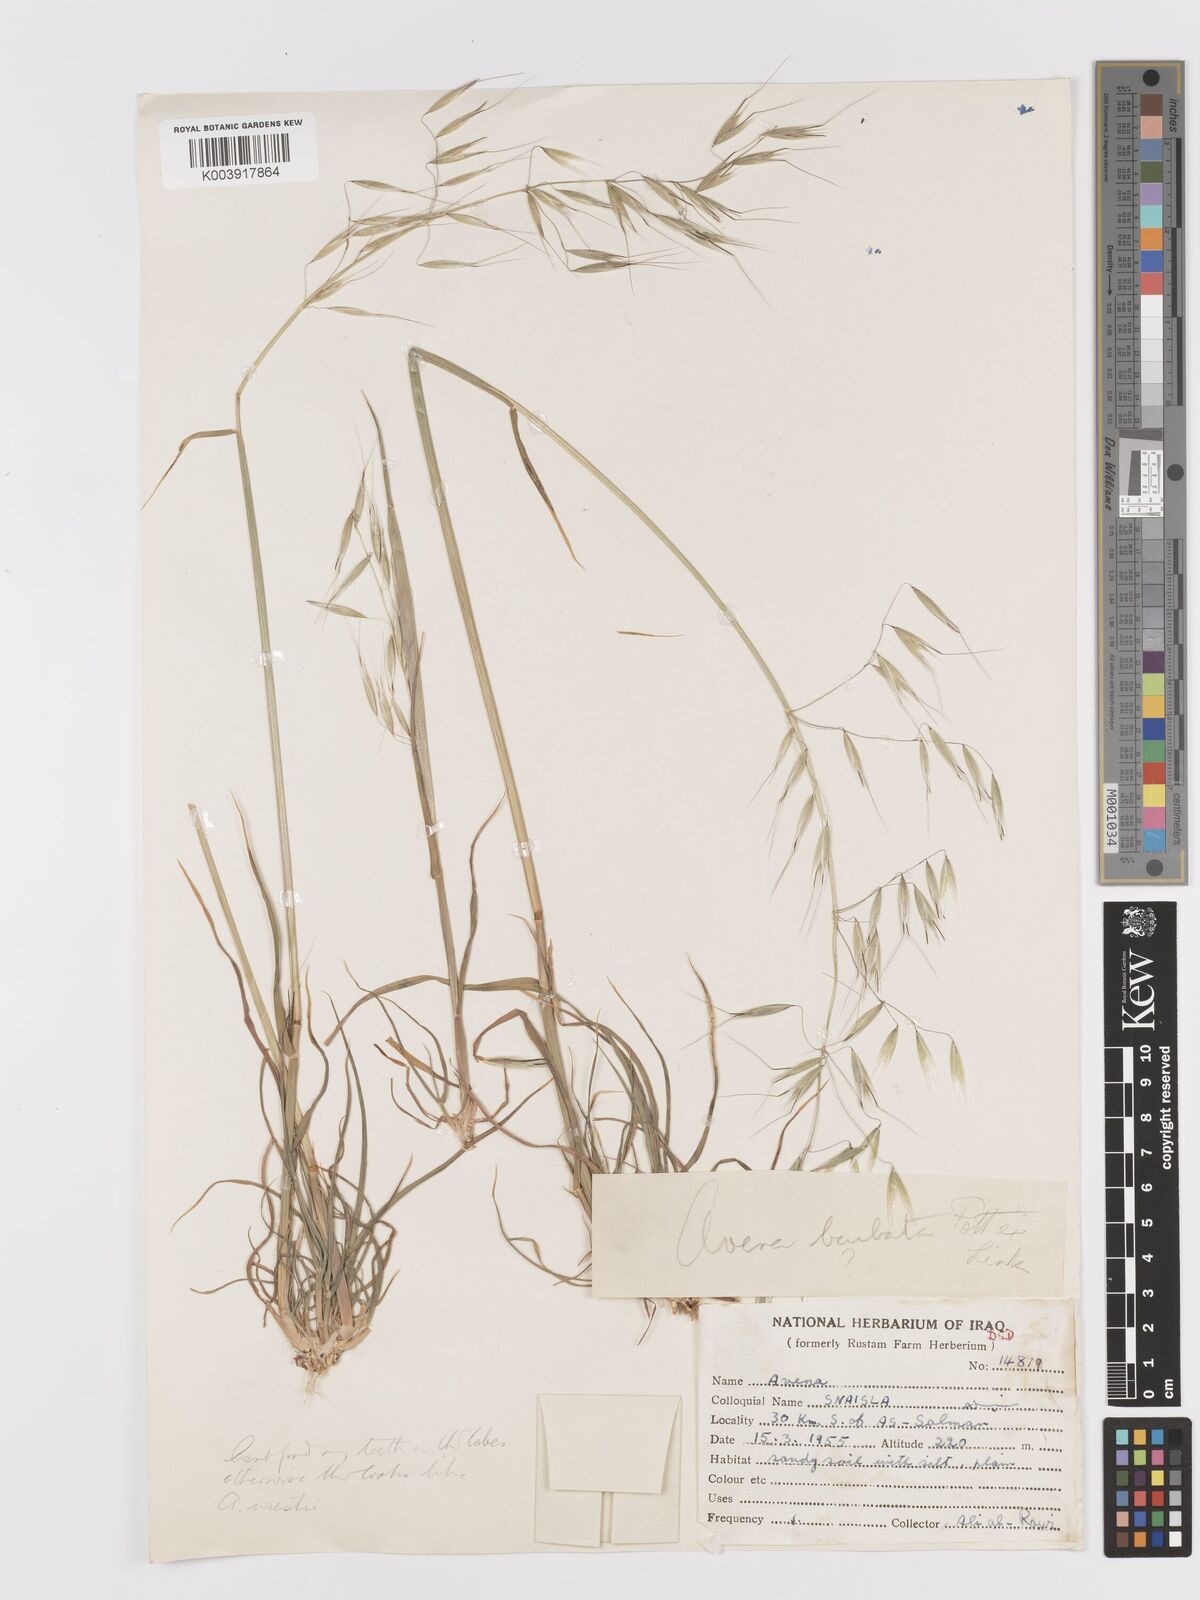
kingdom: Plantae
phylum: Tracheophyta
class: Liliopsida
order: Poales
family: Poaceae
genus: Avena
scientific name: Avena
